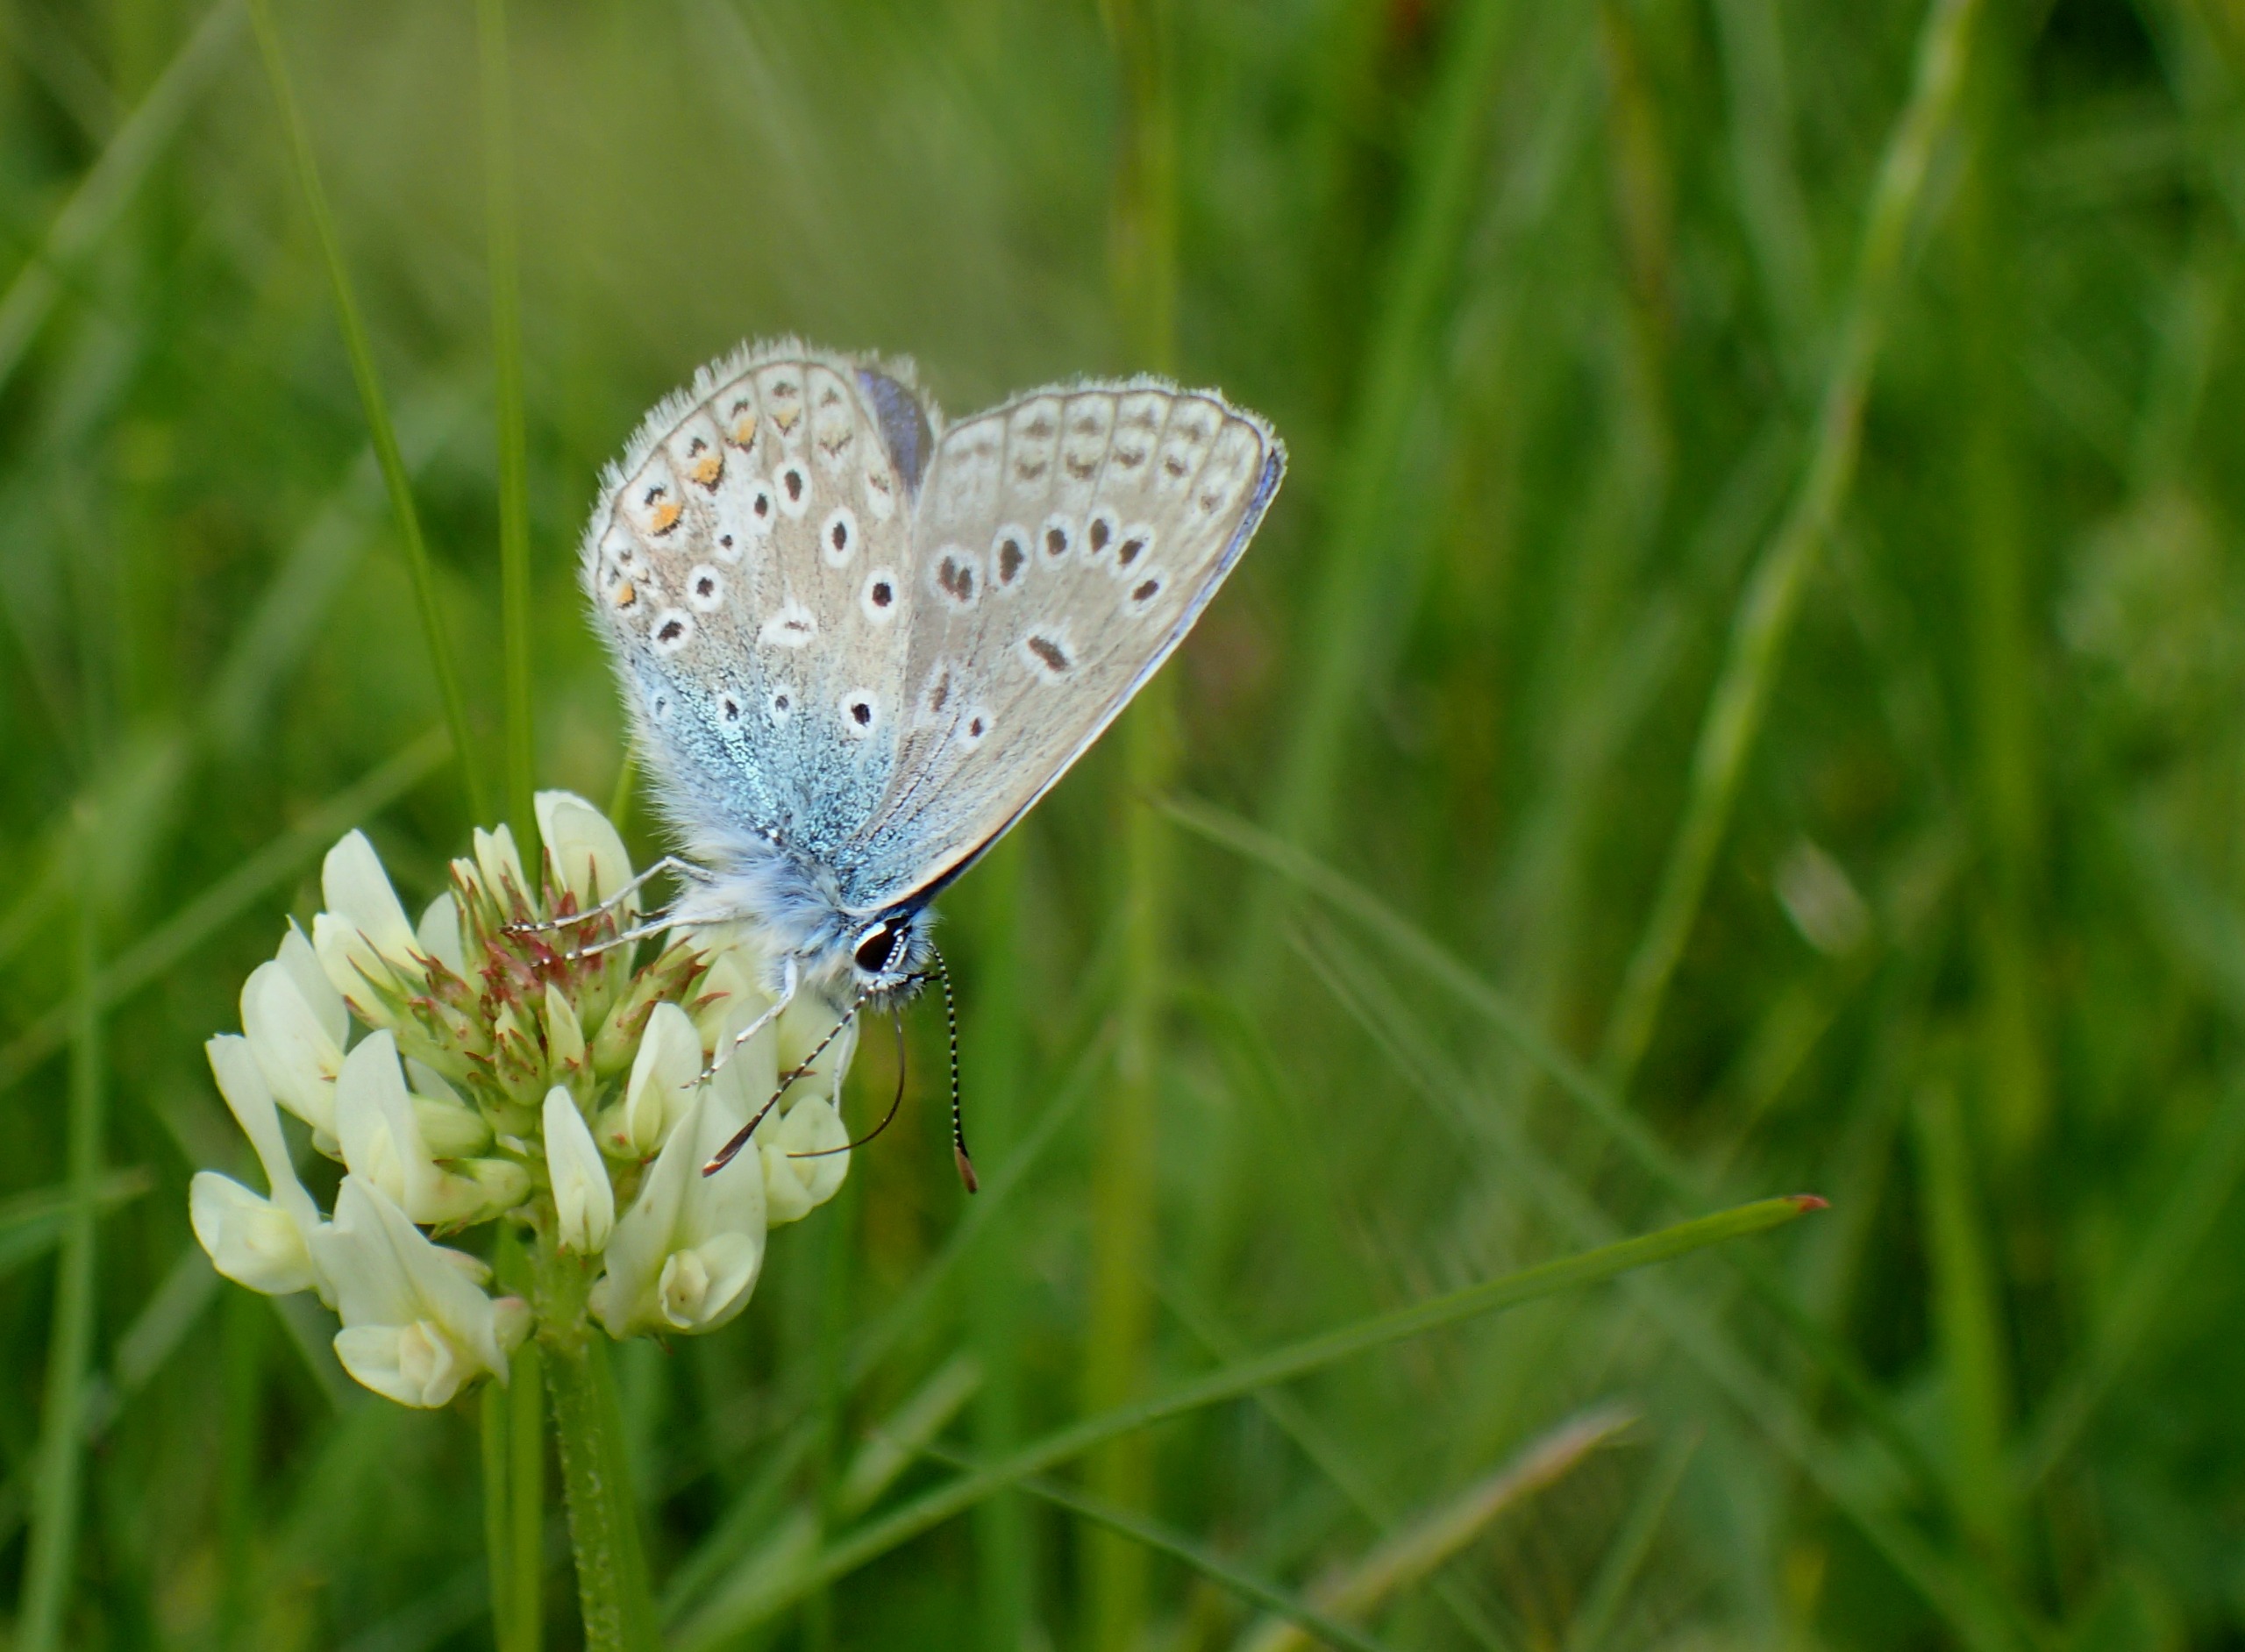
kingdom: Animalia
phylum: Arthropoda
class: Insecta
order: Lepidoptera
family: Lycaenidae
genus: Polyommatus
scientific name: Polyommatus icarus
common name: Almindelig blåfugl
